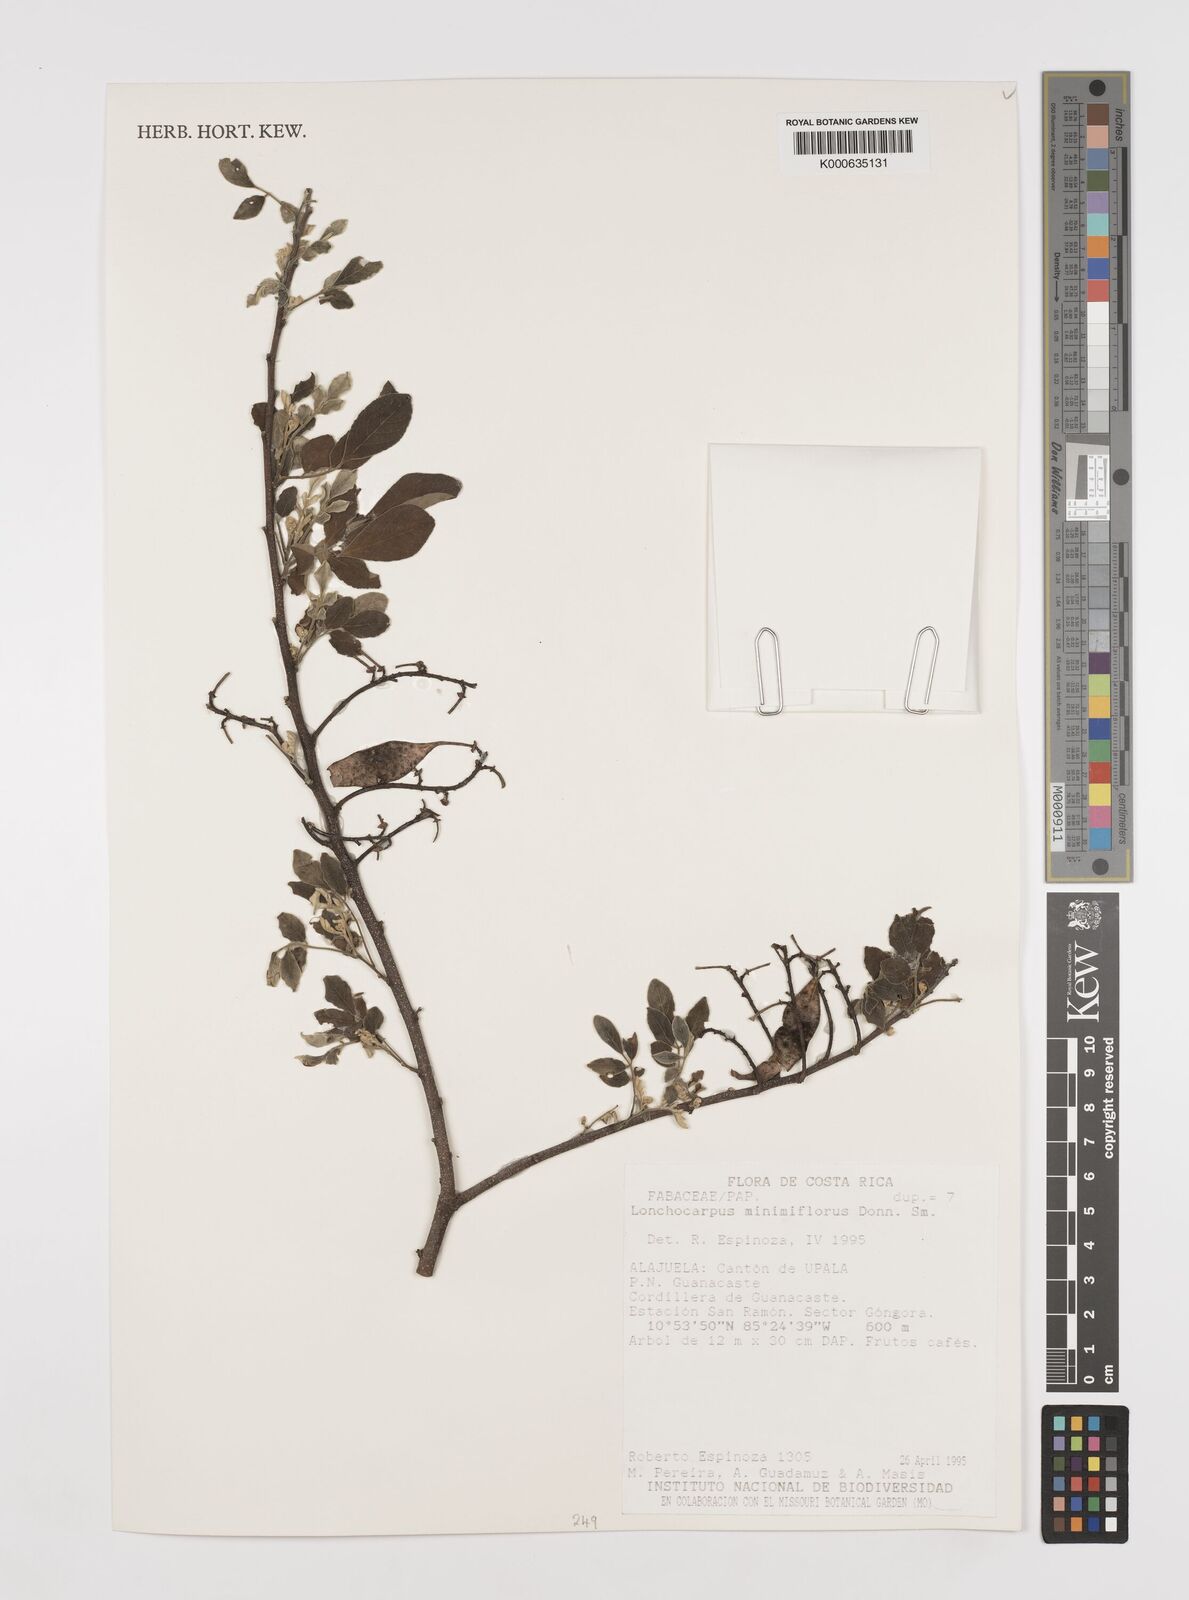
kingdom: Plantae
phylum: Tracheophyta
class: Magnoliopsida
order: Fabales
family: Fabaceae
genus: Lonchocarpus
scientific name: Lonchocarpus minimiflorus
